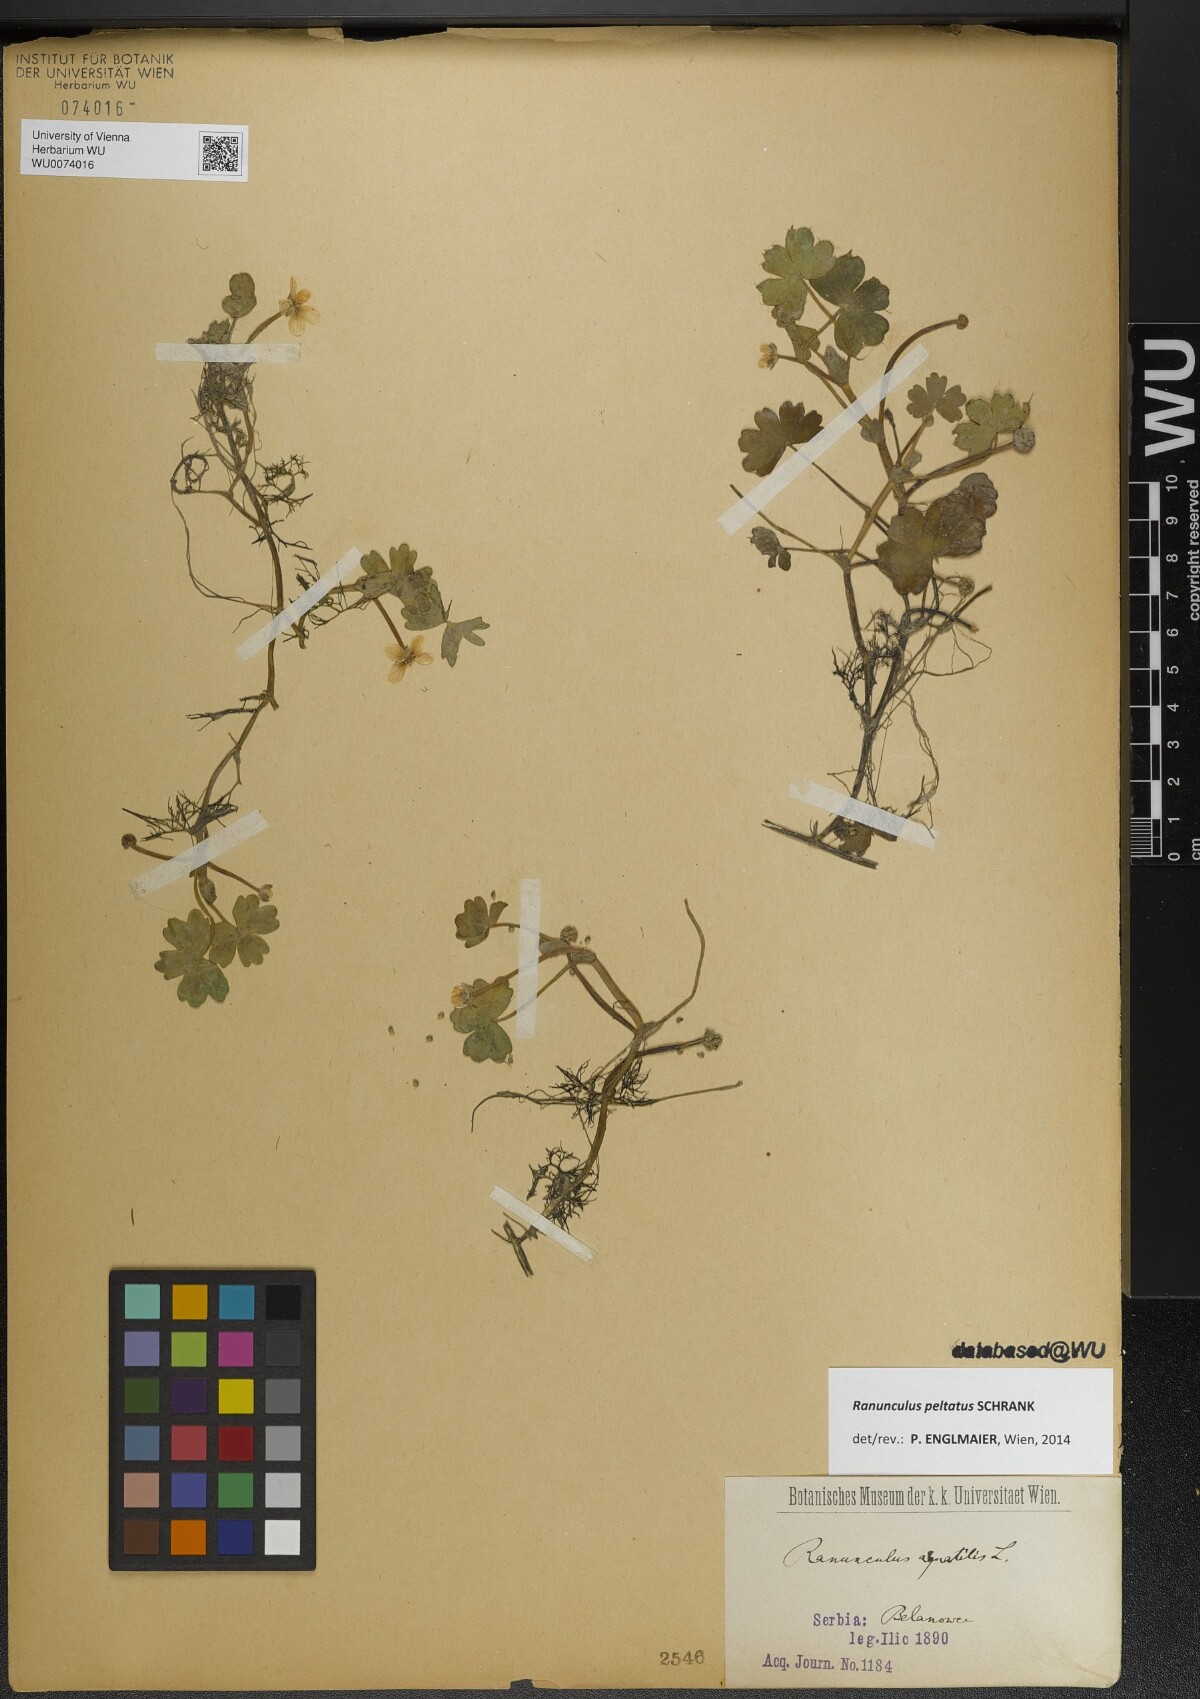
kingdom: Plantae
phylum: Tracheophyta
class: Magnoliopsida
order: Ranunculales
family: Ranunculaceae
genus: Ranunculus
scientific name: Ranunculus peltatus
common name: Pond water-crowfoot
